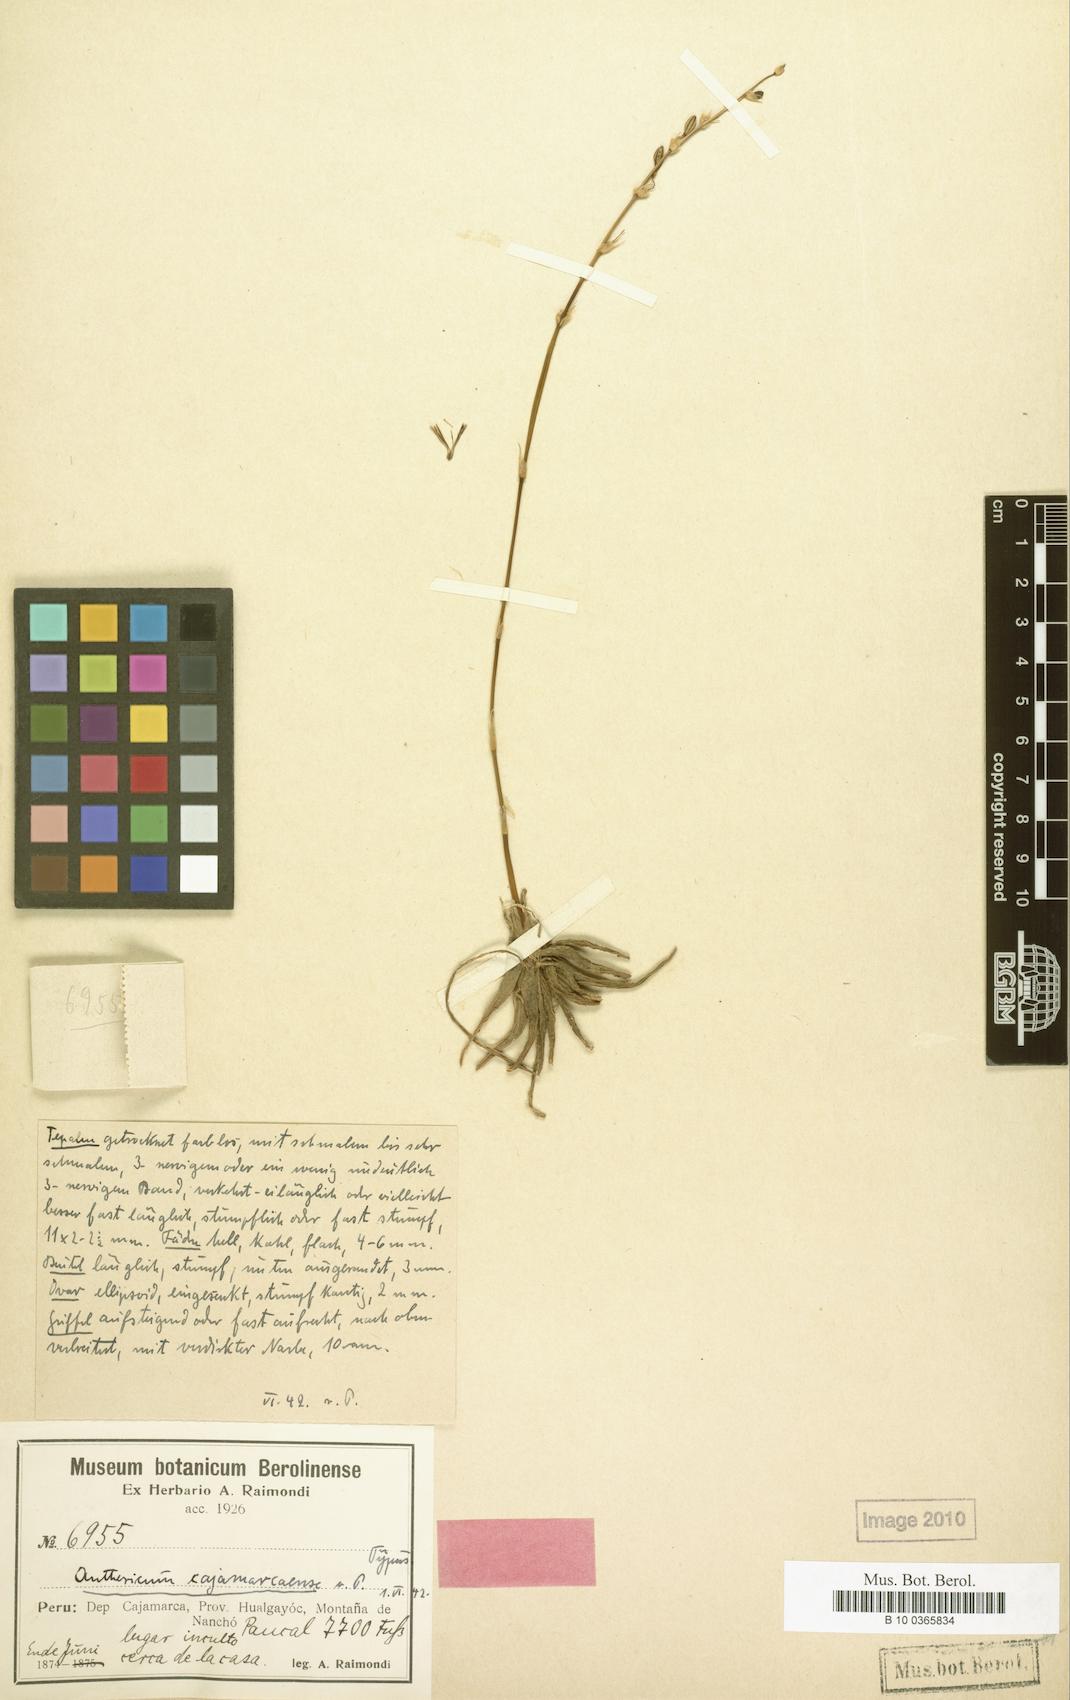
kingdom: Plantae
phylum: Tracheophyta
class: Liliopsida
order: Asparagales
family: Asparagaceae
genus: Diora
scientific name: Diora cajamarcaensis
